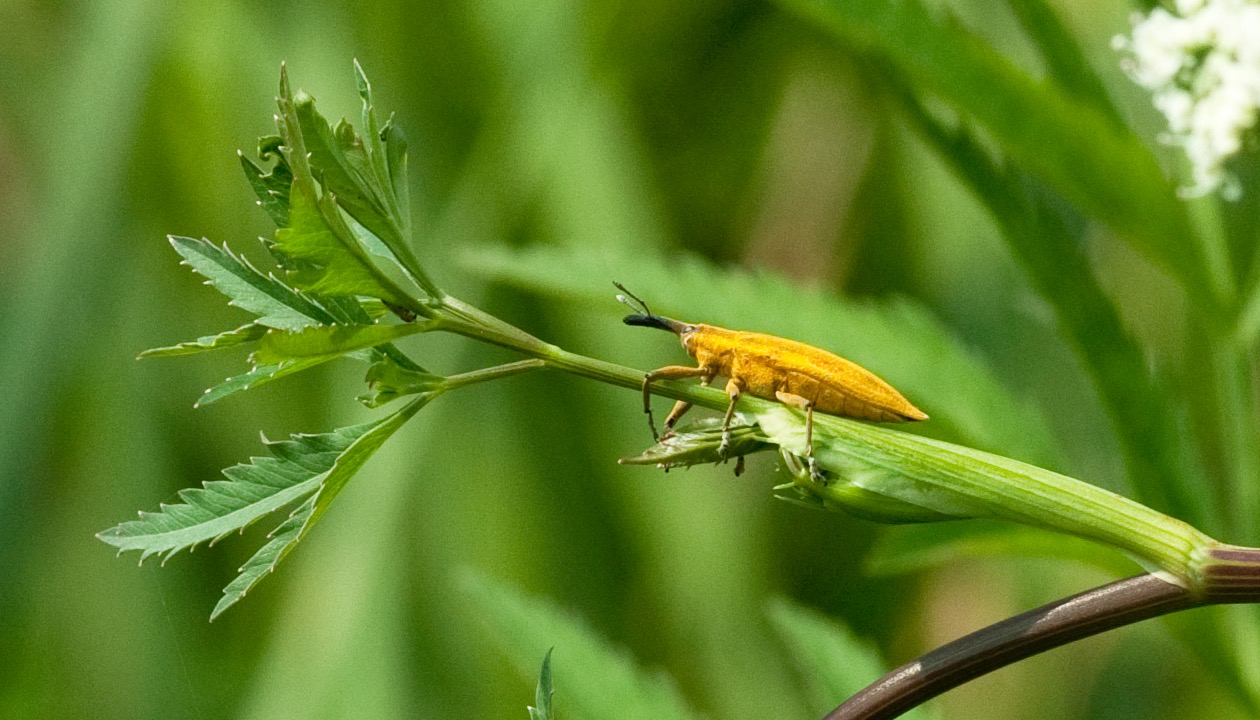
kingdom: Animalia
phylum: Arthropoda
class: Insecta
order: Coleoptera
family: Curculionidae
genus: Lixus
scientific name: Lixus iridis
